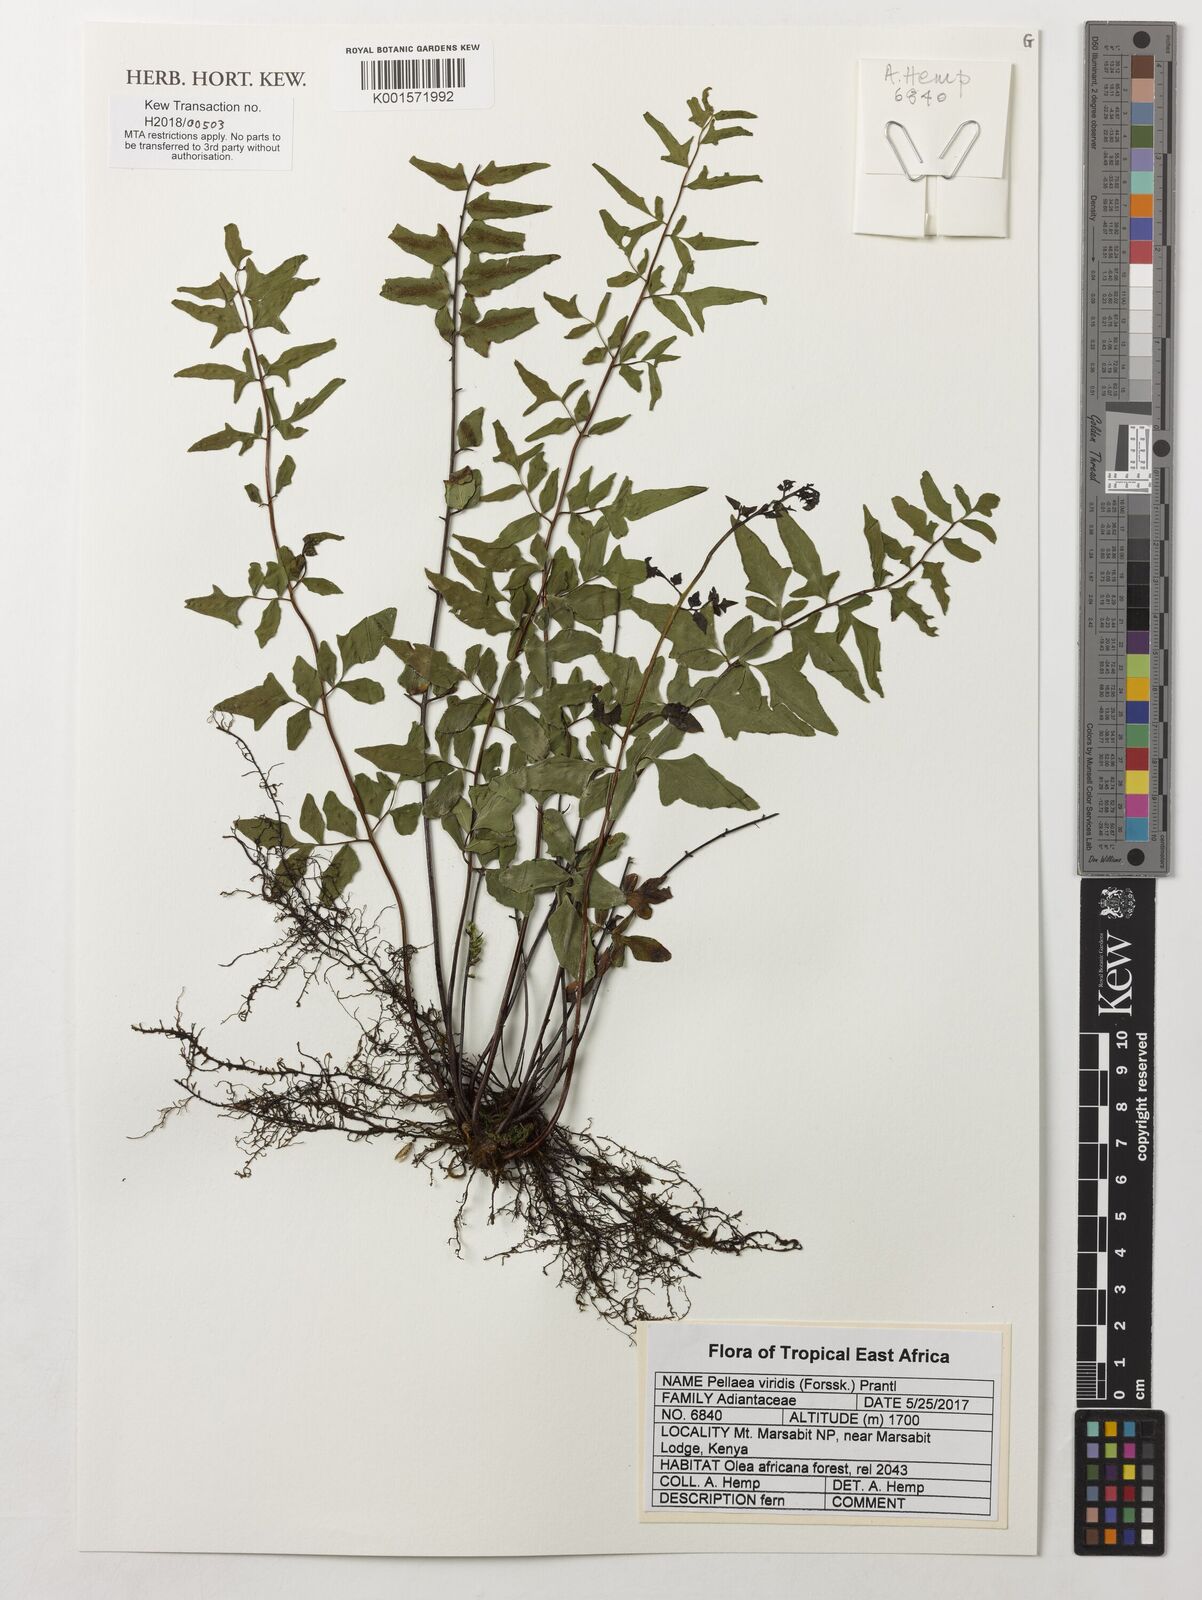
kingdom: Plantae
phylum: Tracheophyta
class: Polypodiopsida
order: Polypodiales
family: Pteridaceae
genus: Cheilanthes
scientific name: Cheilanthes viridis
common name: Green cliffbrake
